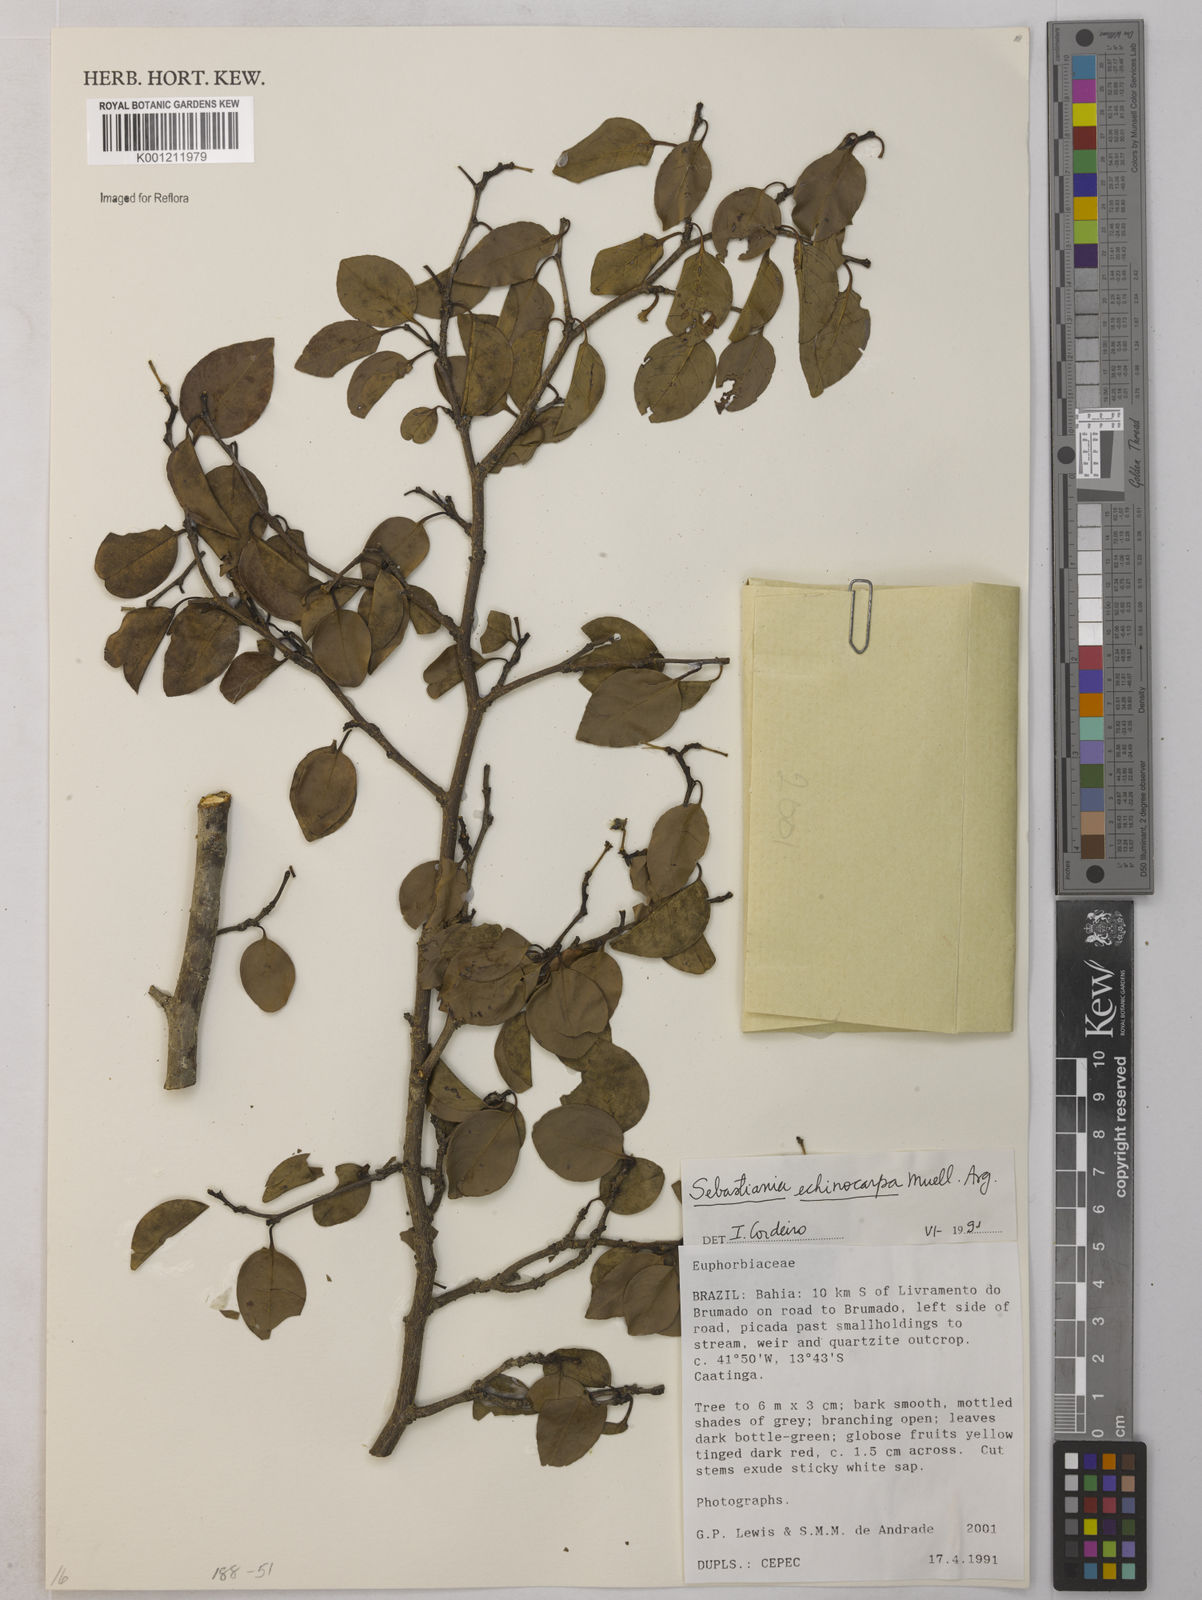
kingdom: Plantae
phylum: Tracheophyta
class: Magnoliopsida
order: Malpighiales
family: Euphorbiaceae
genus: Sebastiania
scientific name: Sebastiania
